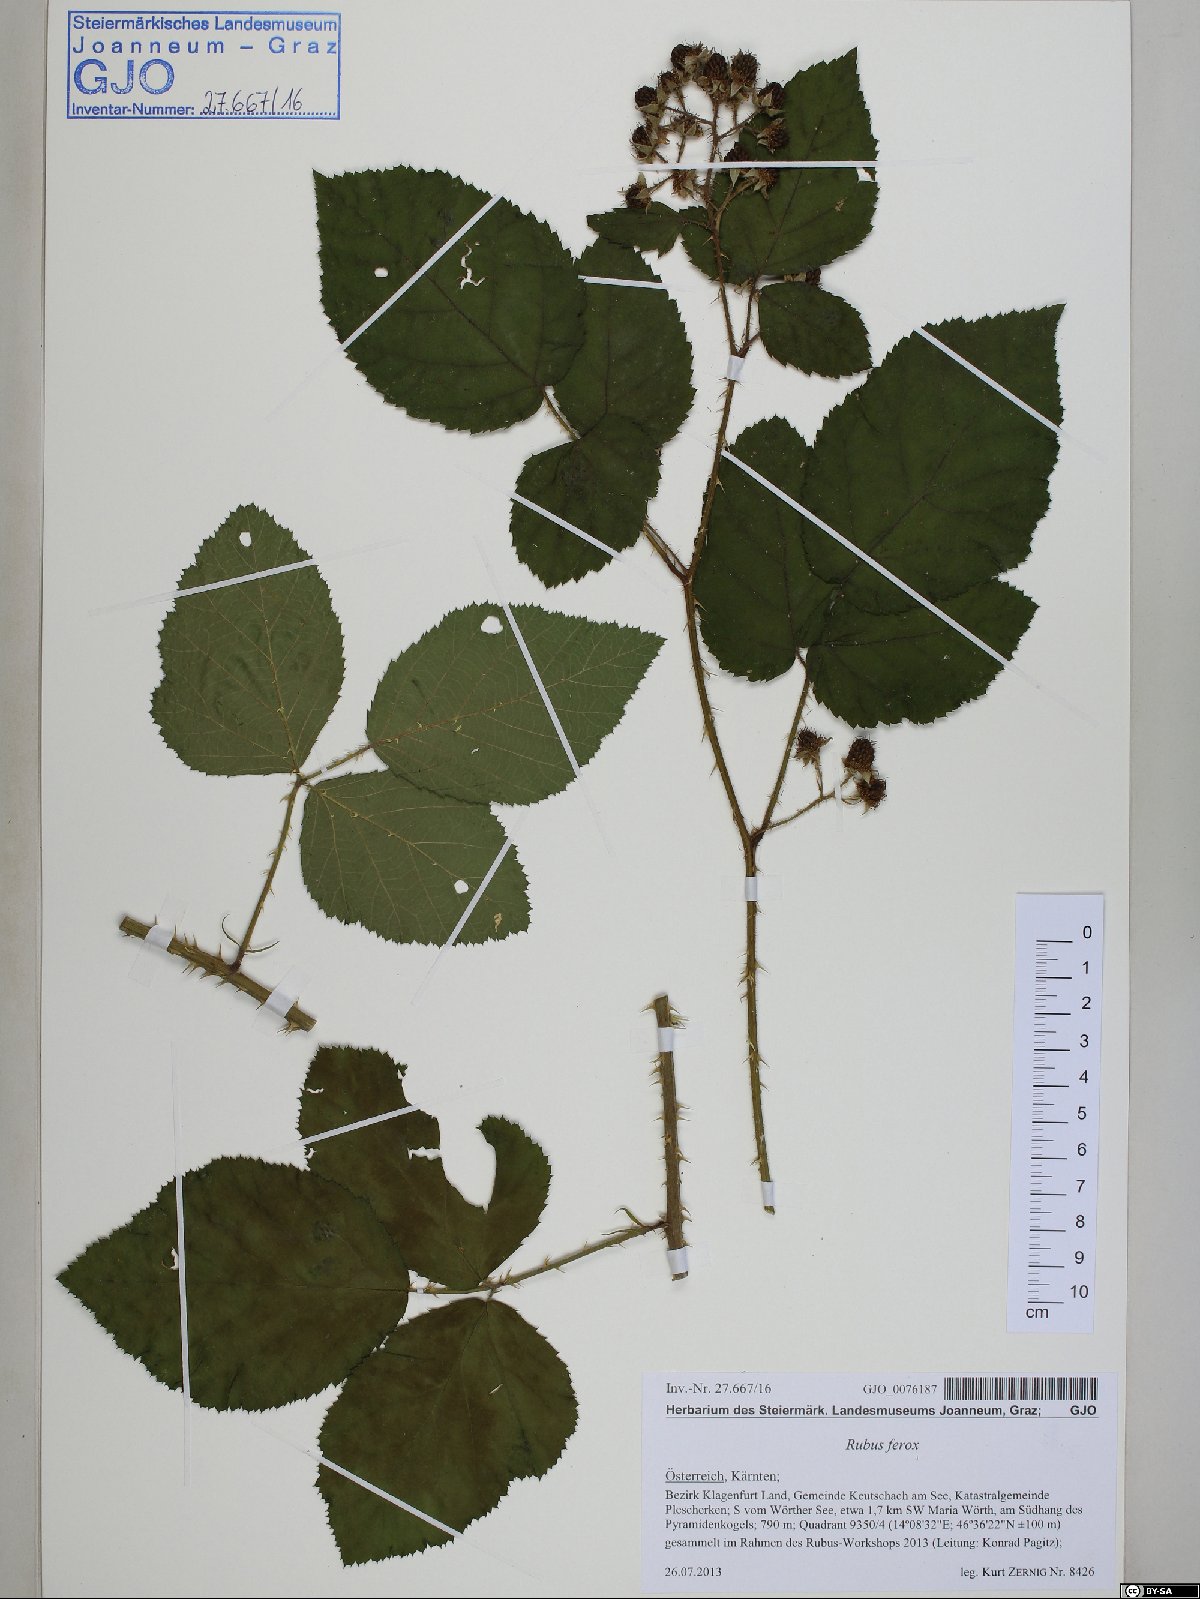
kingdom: Plantae
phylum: Tracheophyta
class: Magnoliopsida
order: Rosales
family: Rosaceae
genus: Rubus
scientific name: Rubus ferox
